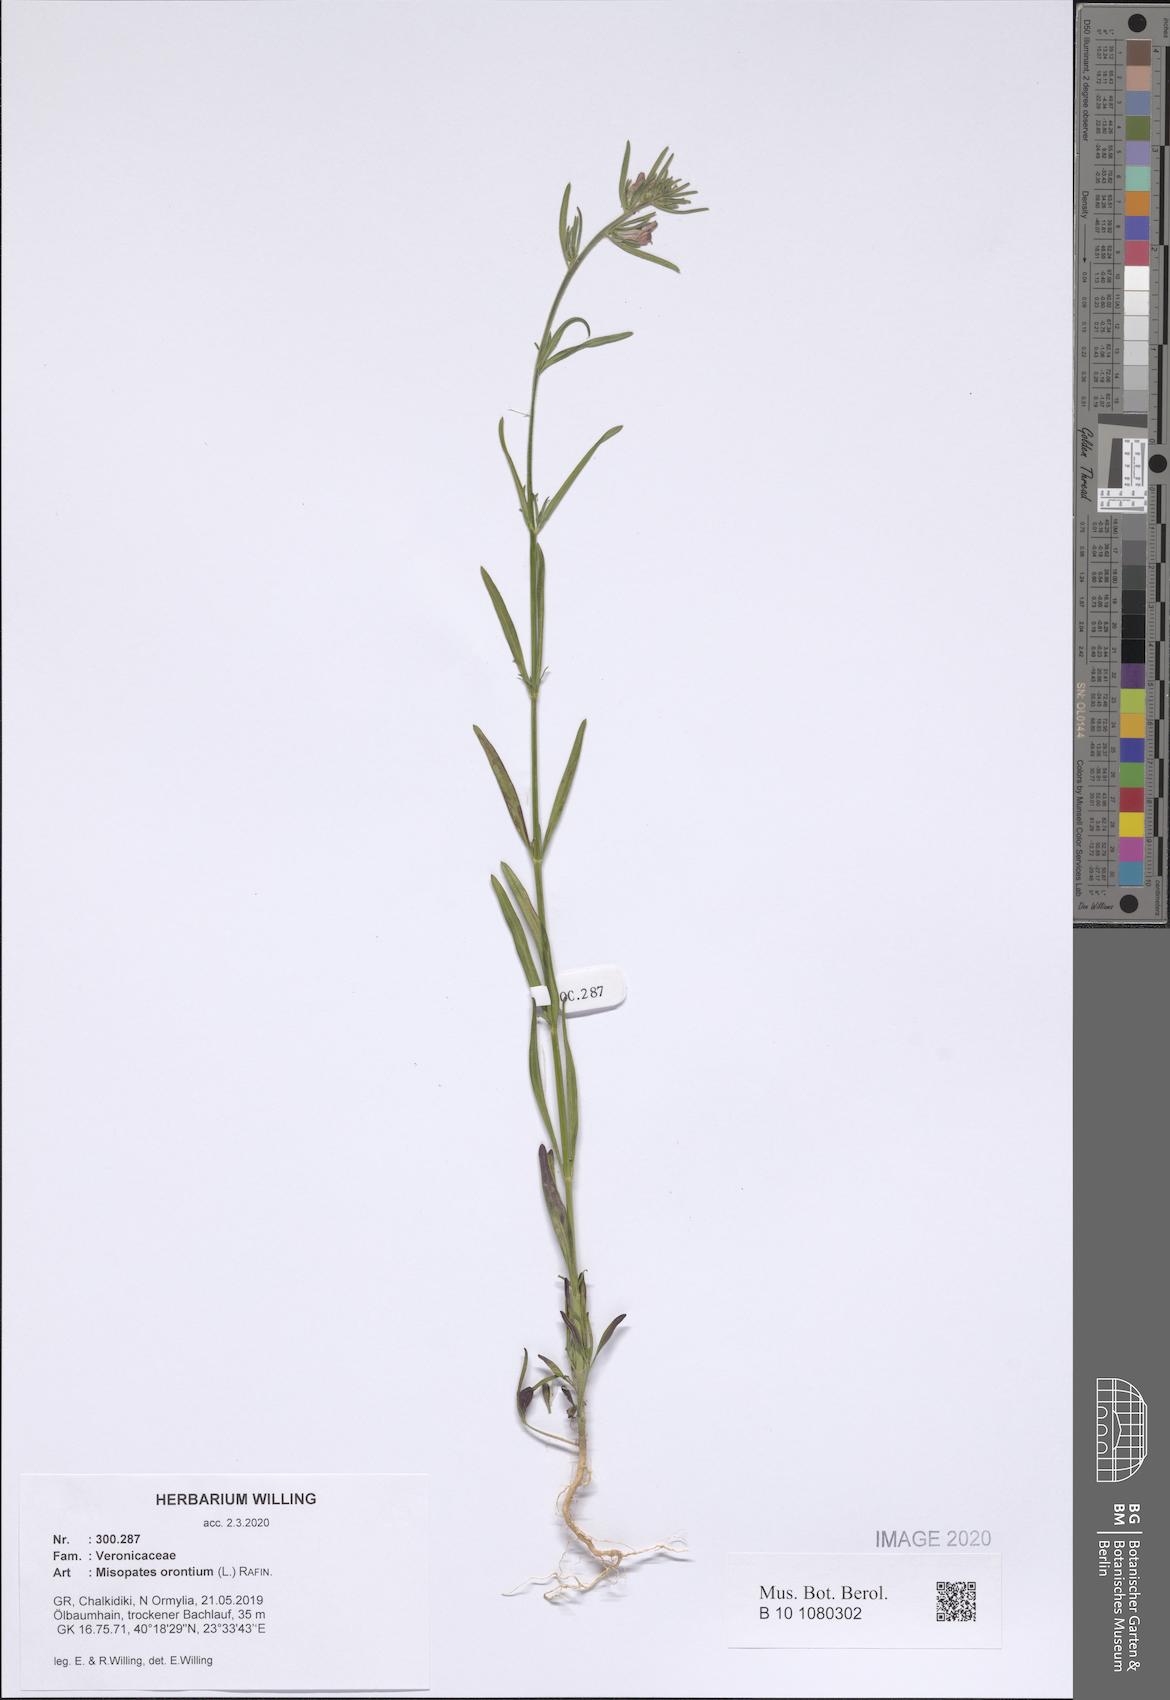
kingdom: Plantae
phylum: Tracheophyta
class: Magnoliopsida
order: Lamiales
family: Plantaginaceae
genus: Misopates
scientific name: Misopates orontium
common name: Weasel's-snout
